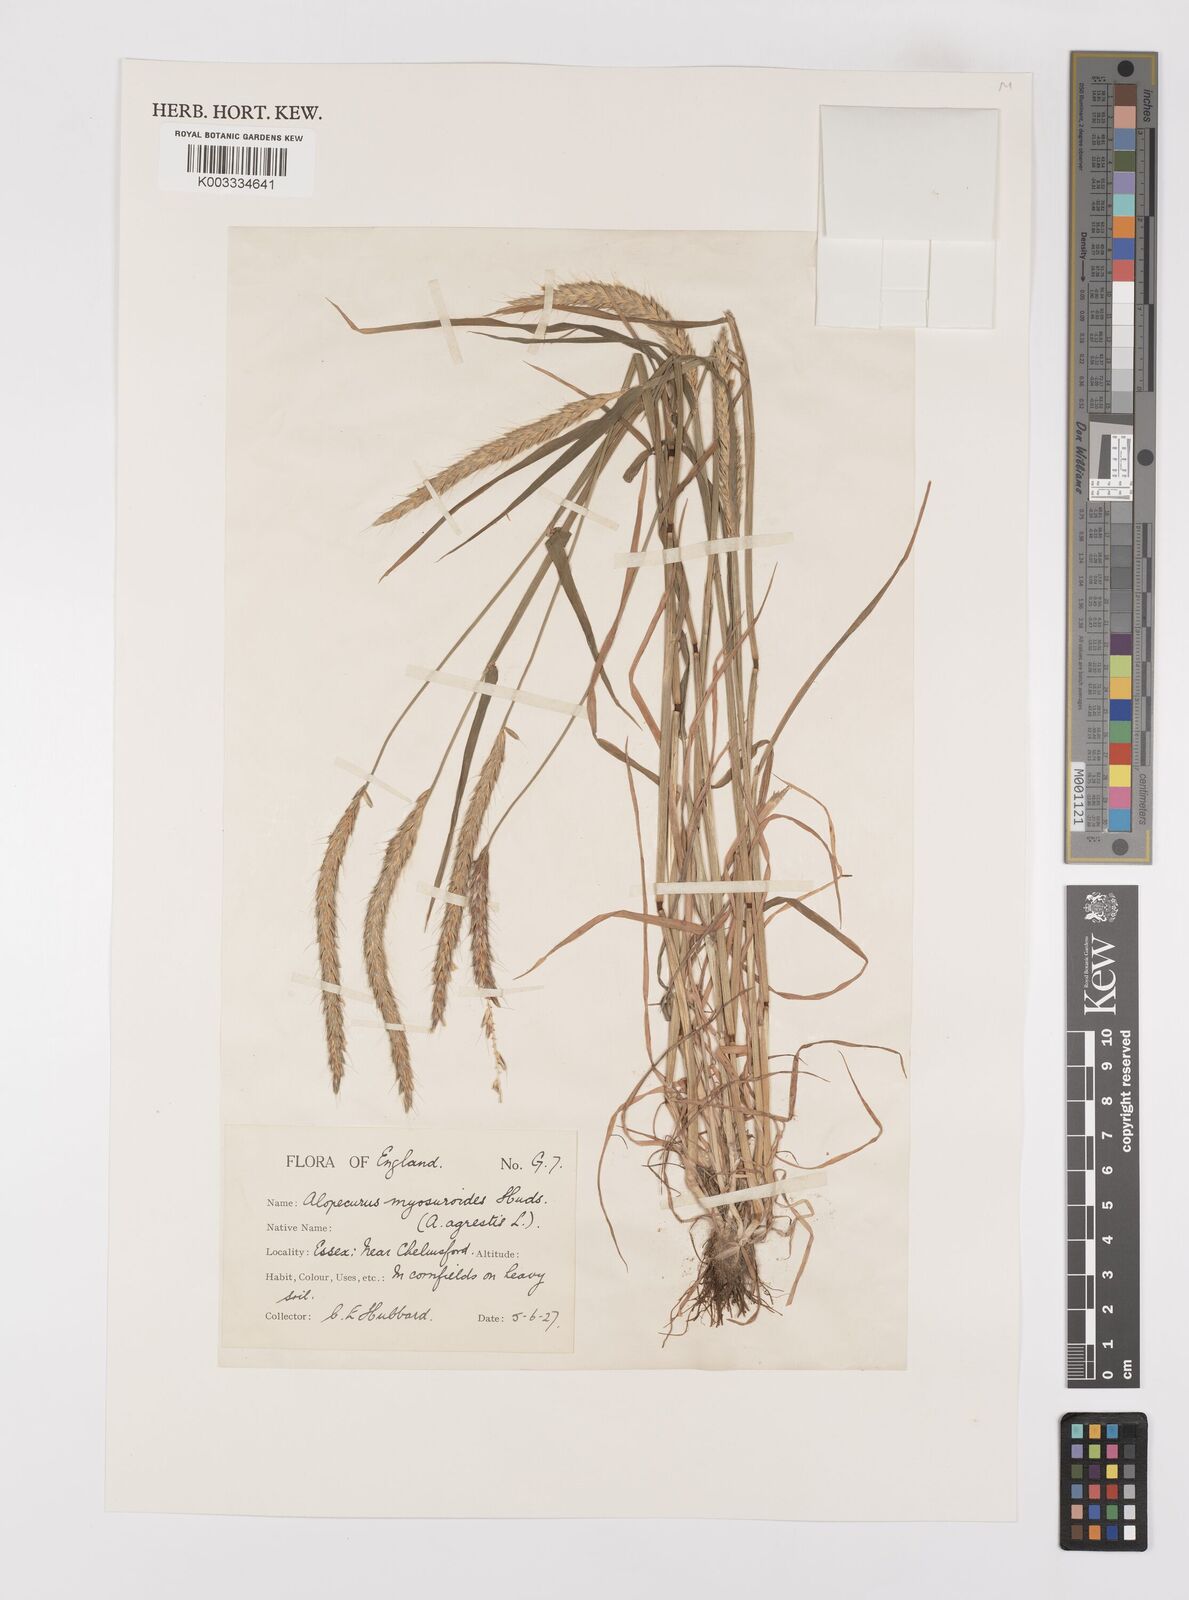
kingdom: Plantae
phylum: Tracheophyta
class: Liliopsida
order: Poales
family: Poaceae
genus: Alopecurus
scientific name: Alopecurus myosuroides
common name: Black-grass
